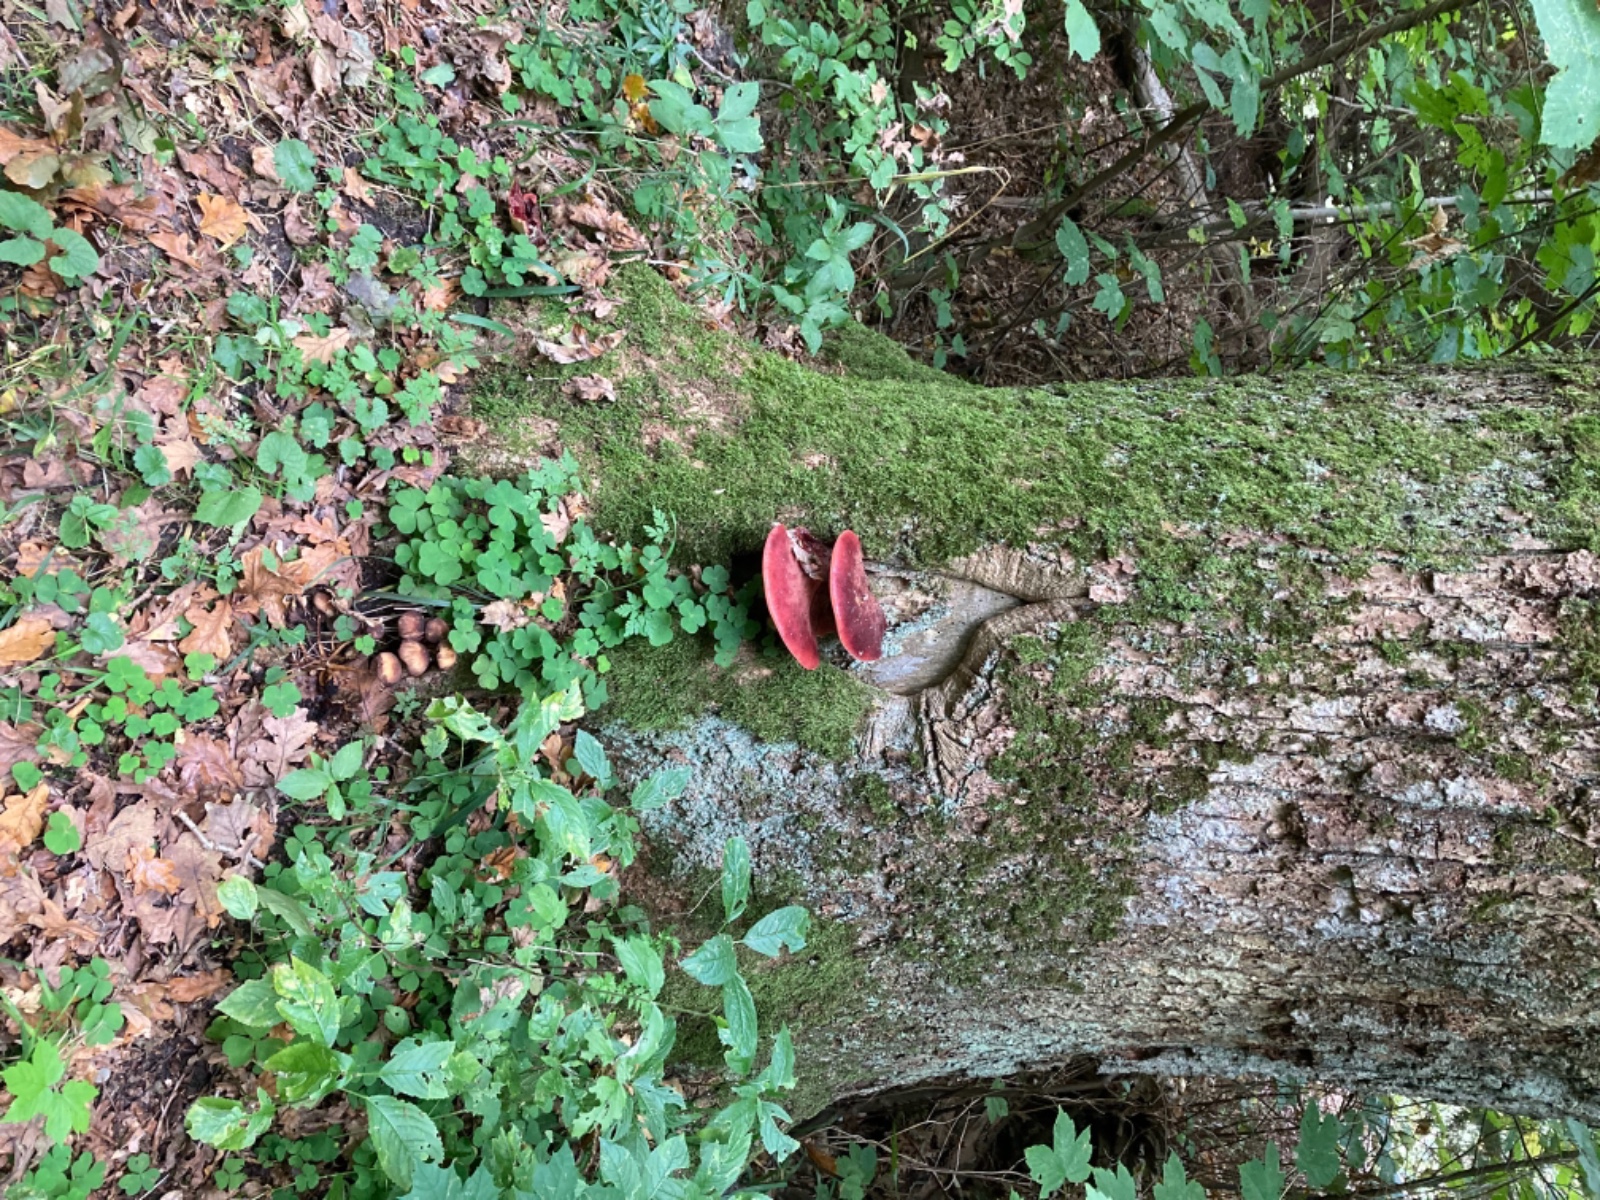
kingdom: Fungi
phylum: Basidiomycota
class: Agaricomycetes
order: Agaricales
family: Fistulinaceae
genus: Fistulina
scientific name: Fistulina hepatica
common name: oksetunge
